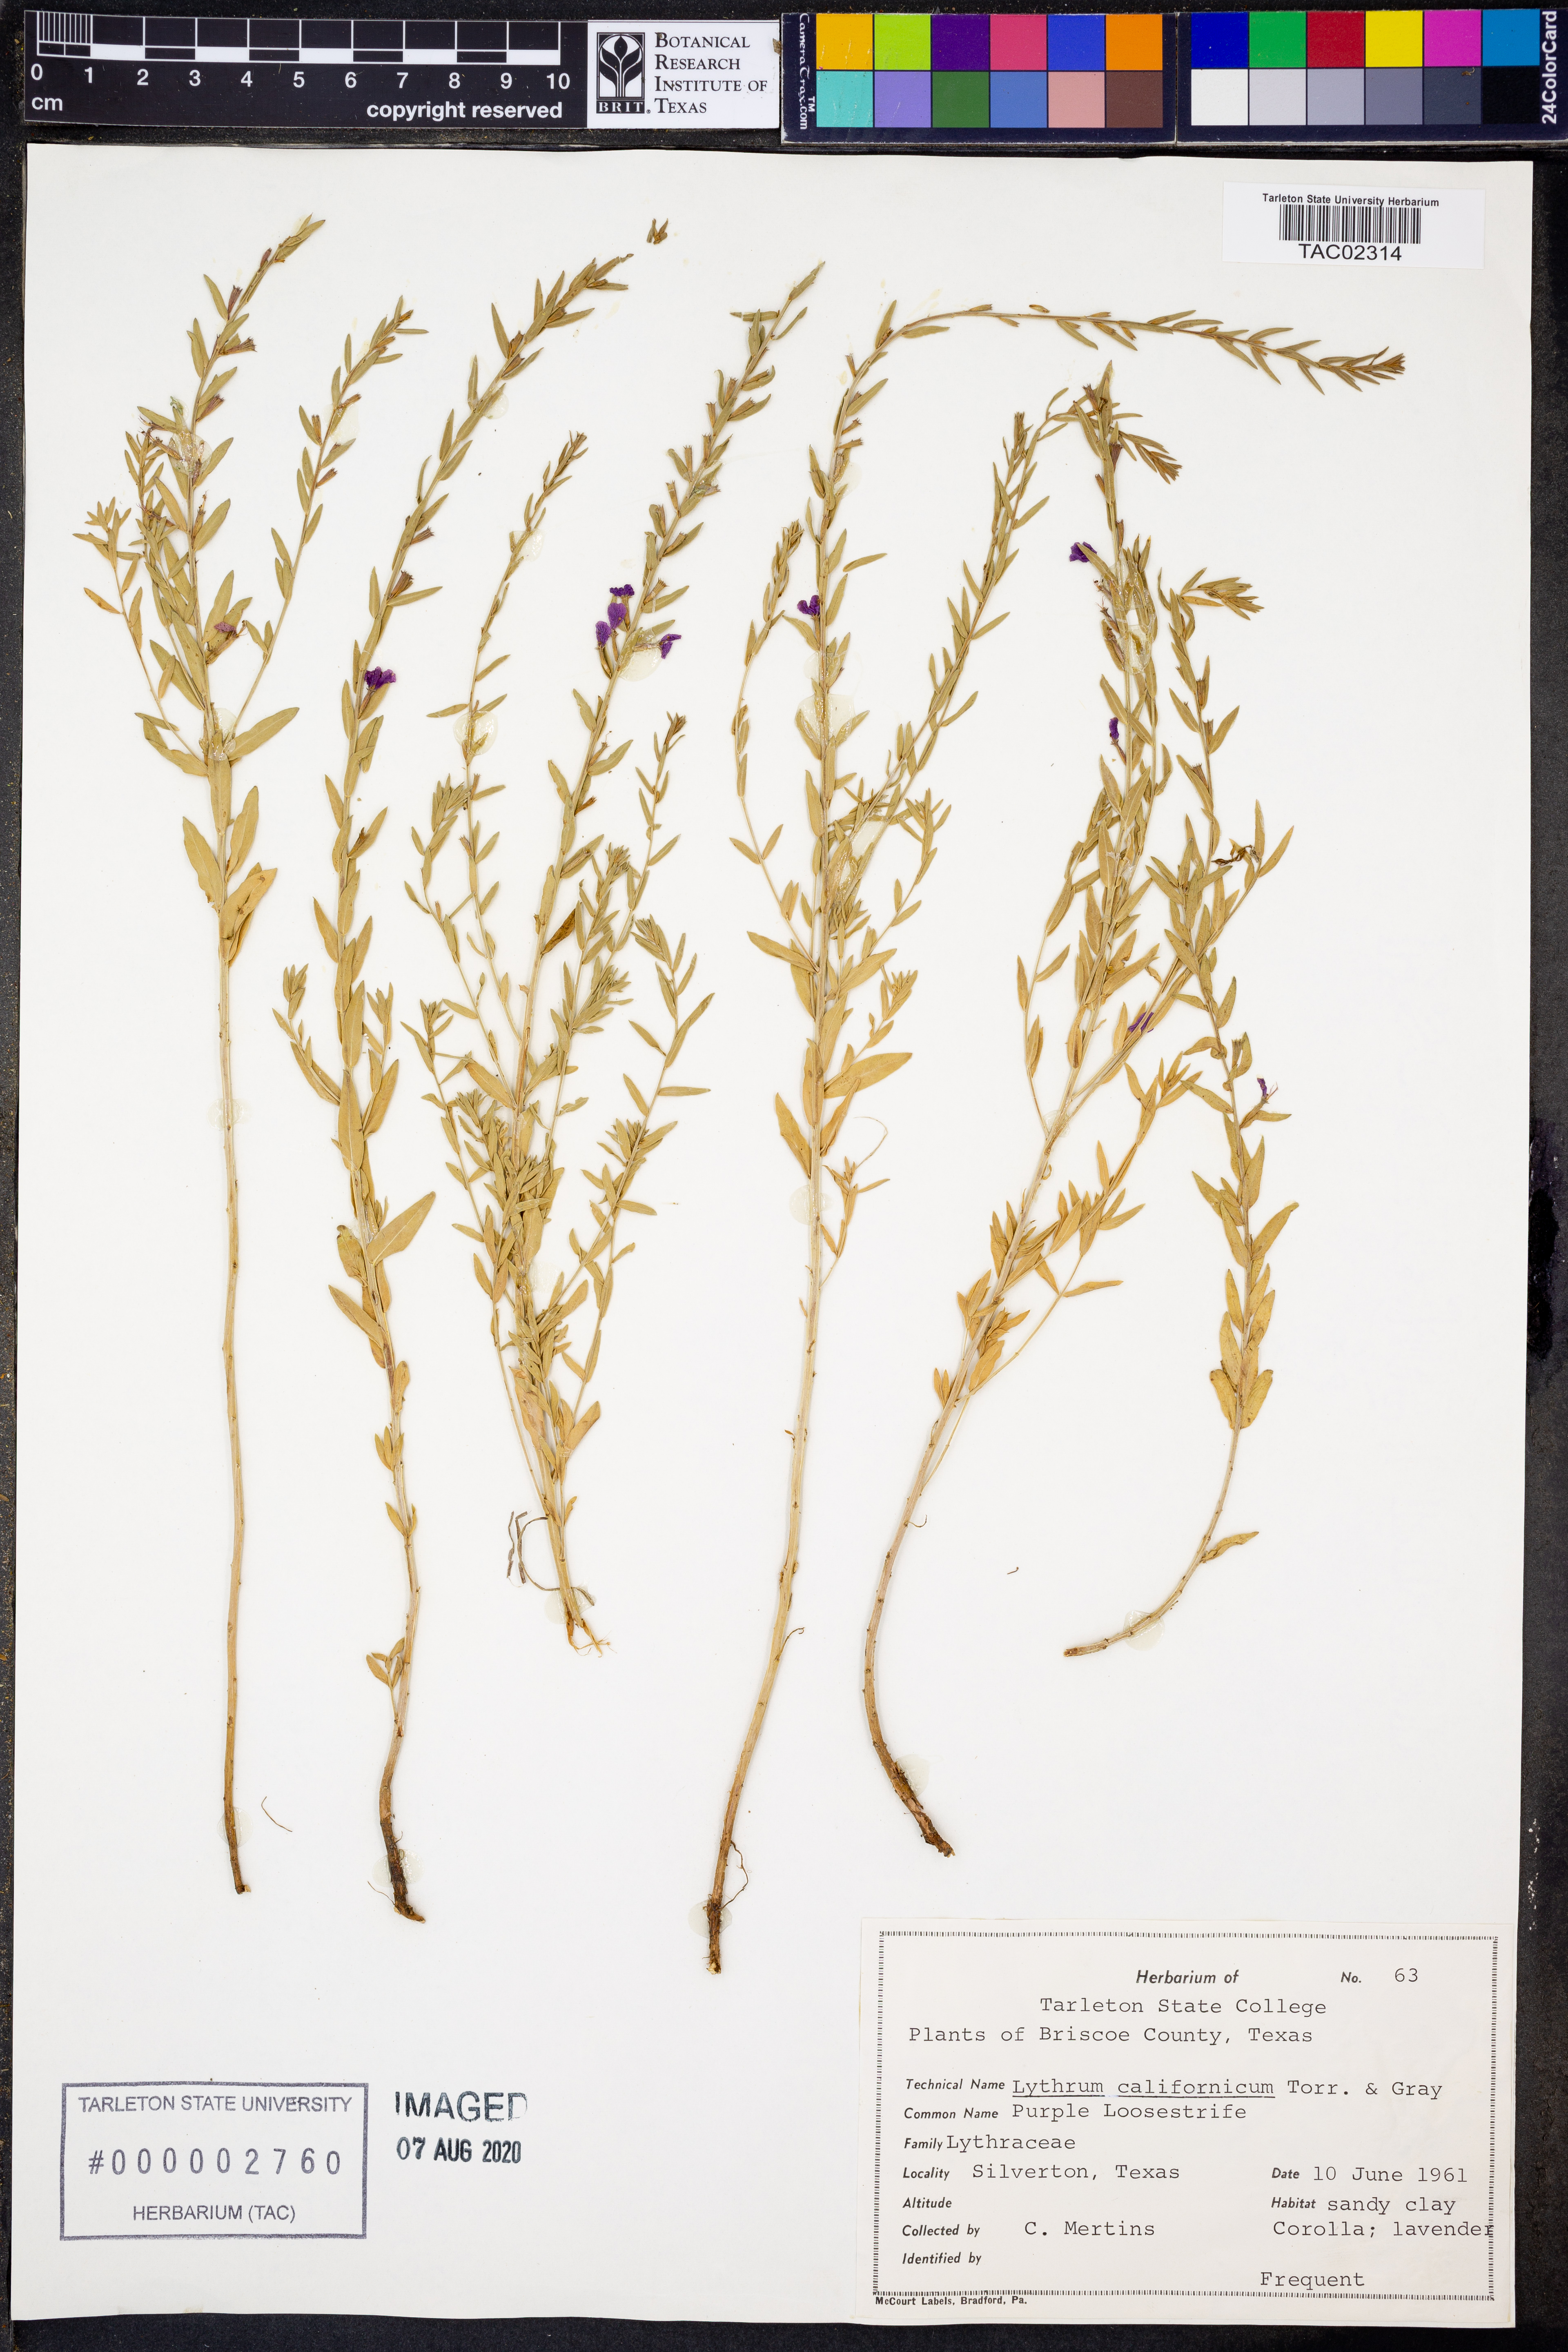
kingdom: Plantae
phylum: Tracheophyta
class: Magnoliopsida
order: Myrtales
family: Lythraceae
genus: Lythrum
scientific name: Lythrum californicum
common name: California loosestrife
